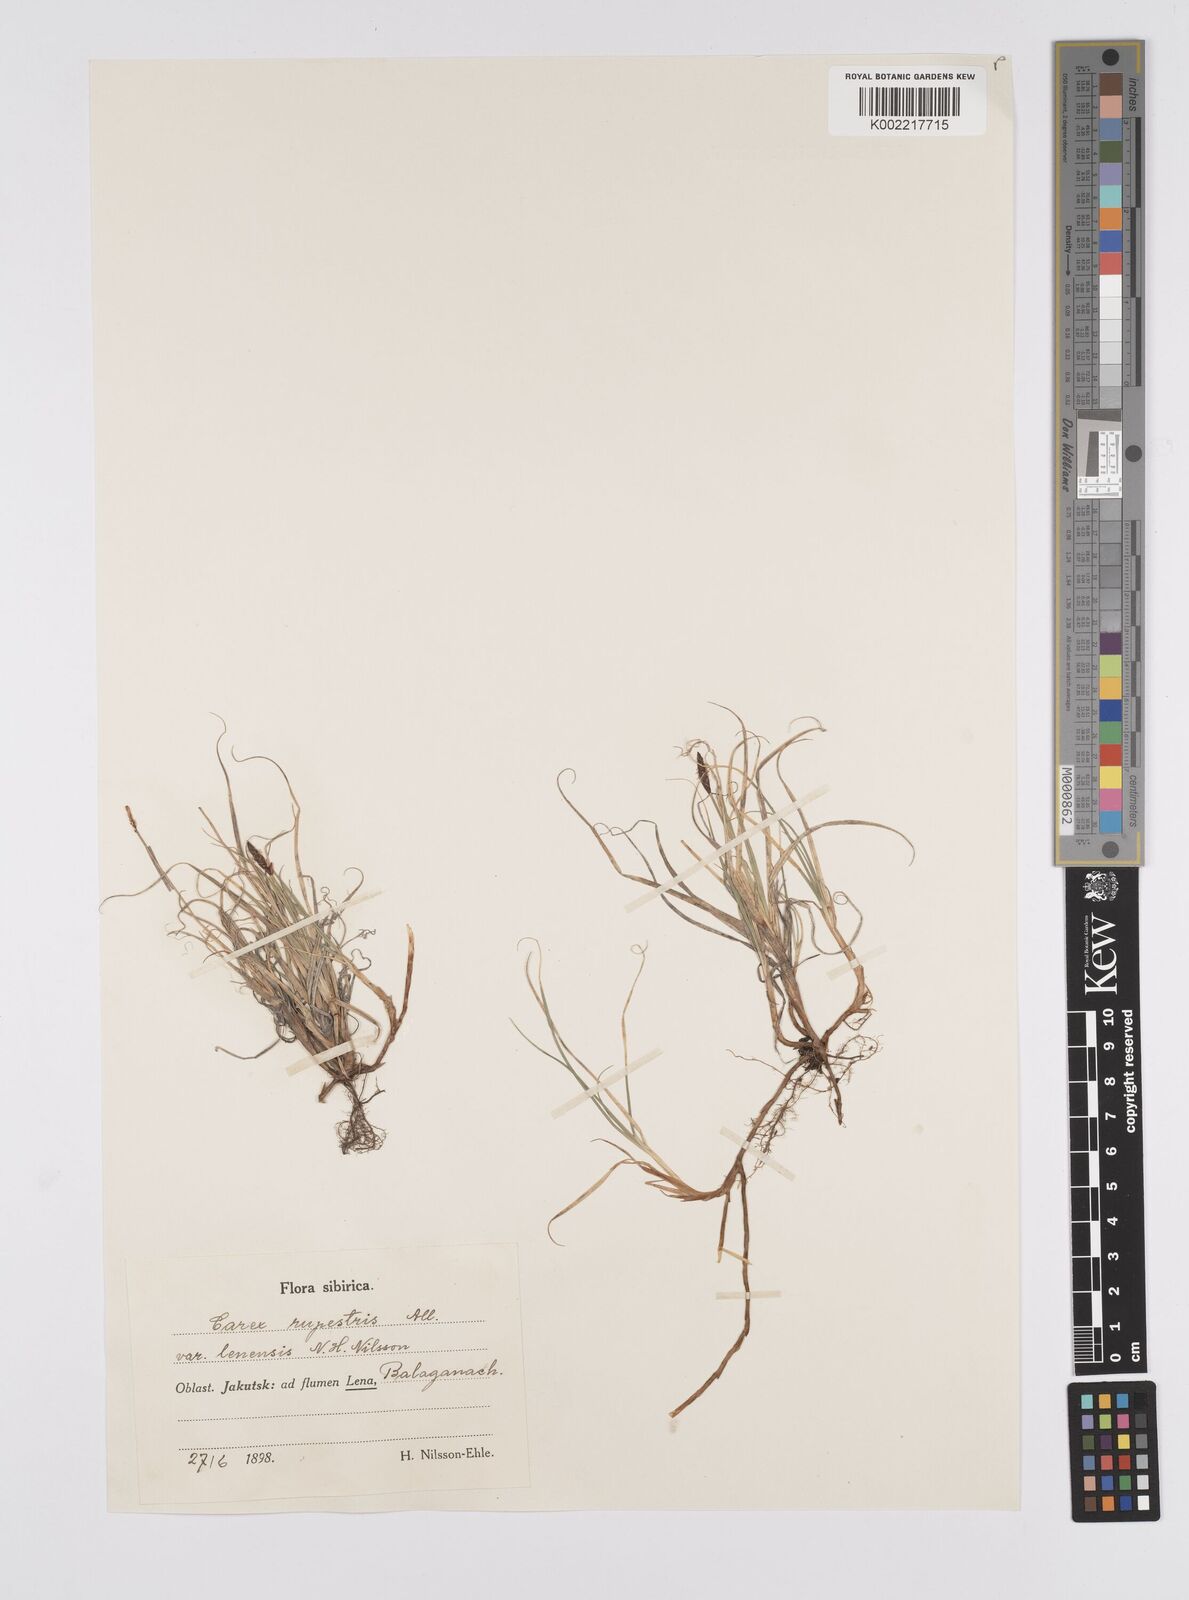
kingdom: Plantae
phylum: Tracheophyta
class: Liliopsida
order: Poales
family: Cyperaceae
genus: Carex
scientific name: Carex rupestris
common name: Rock sedge
